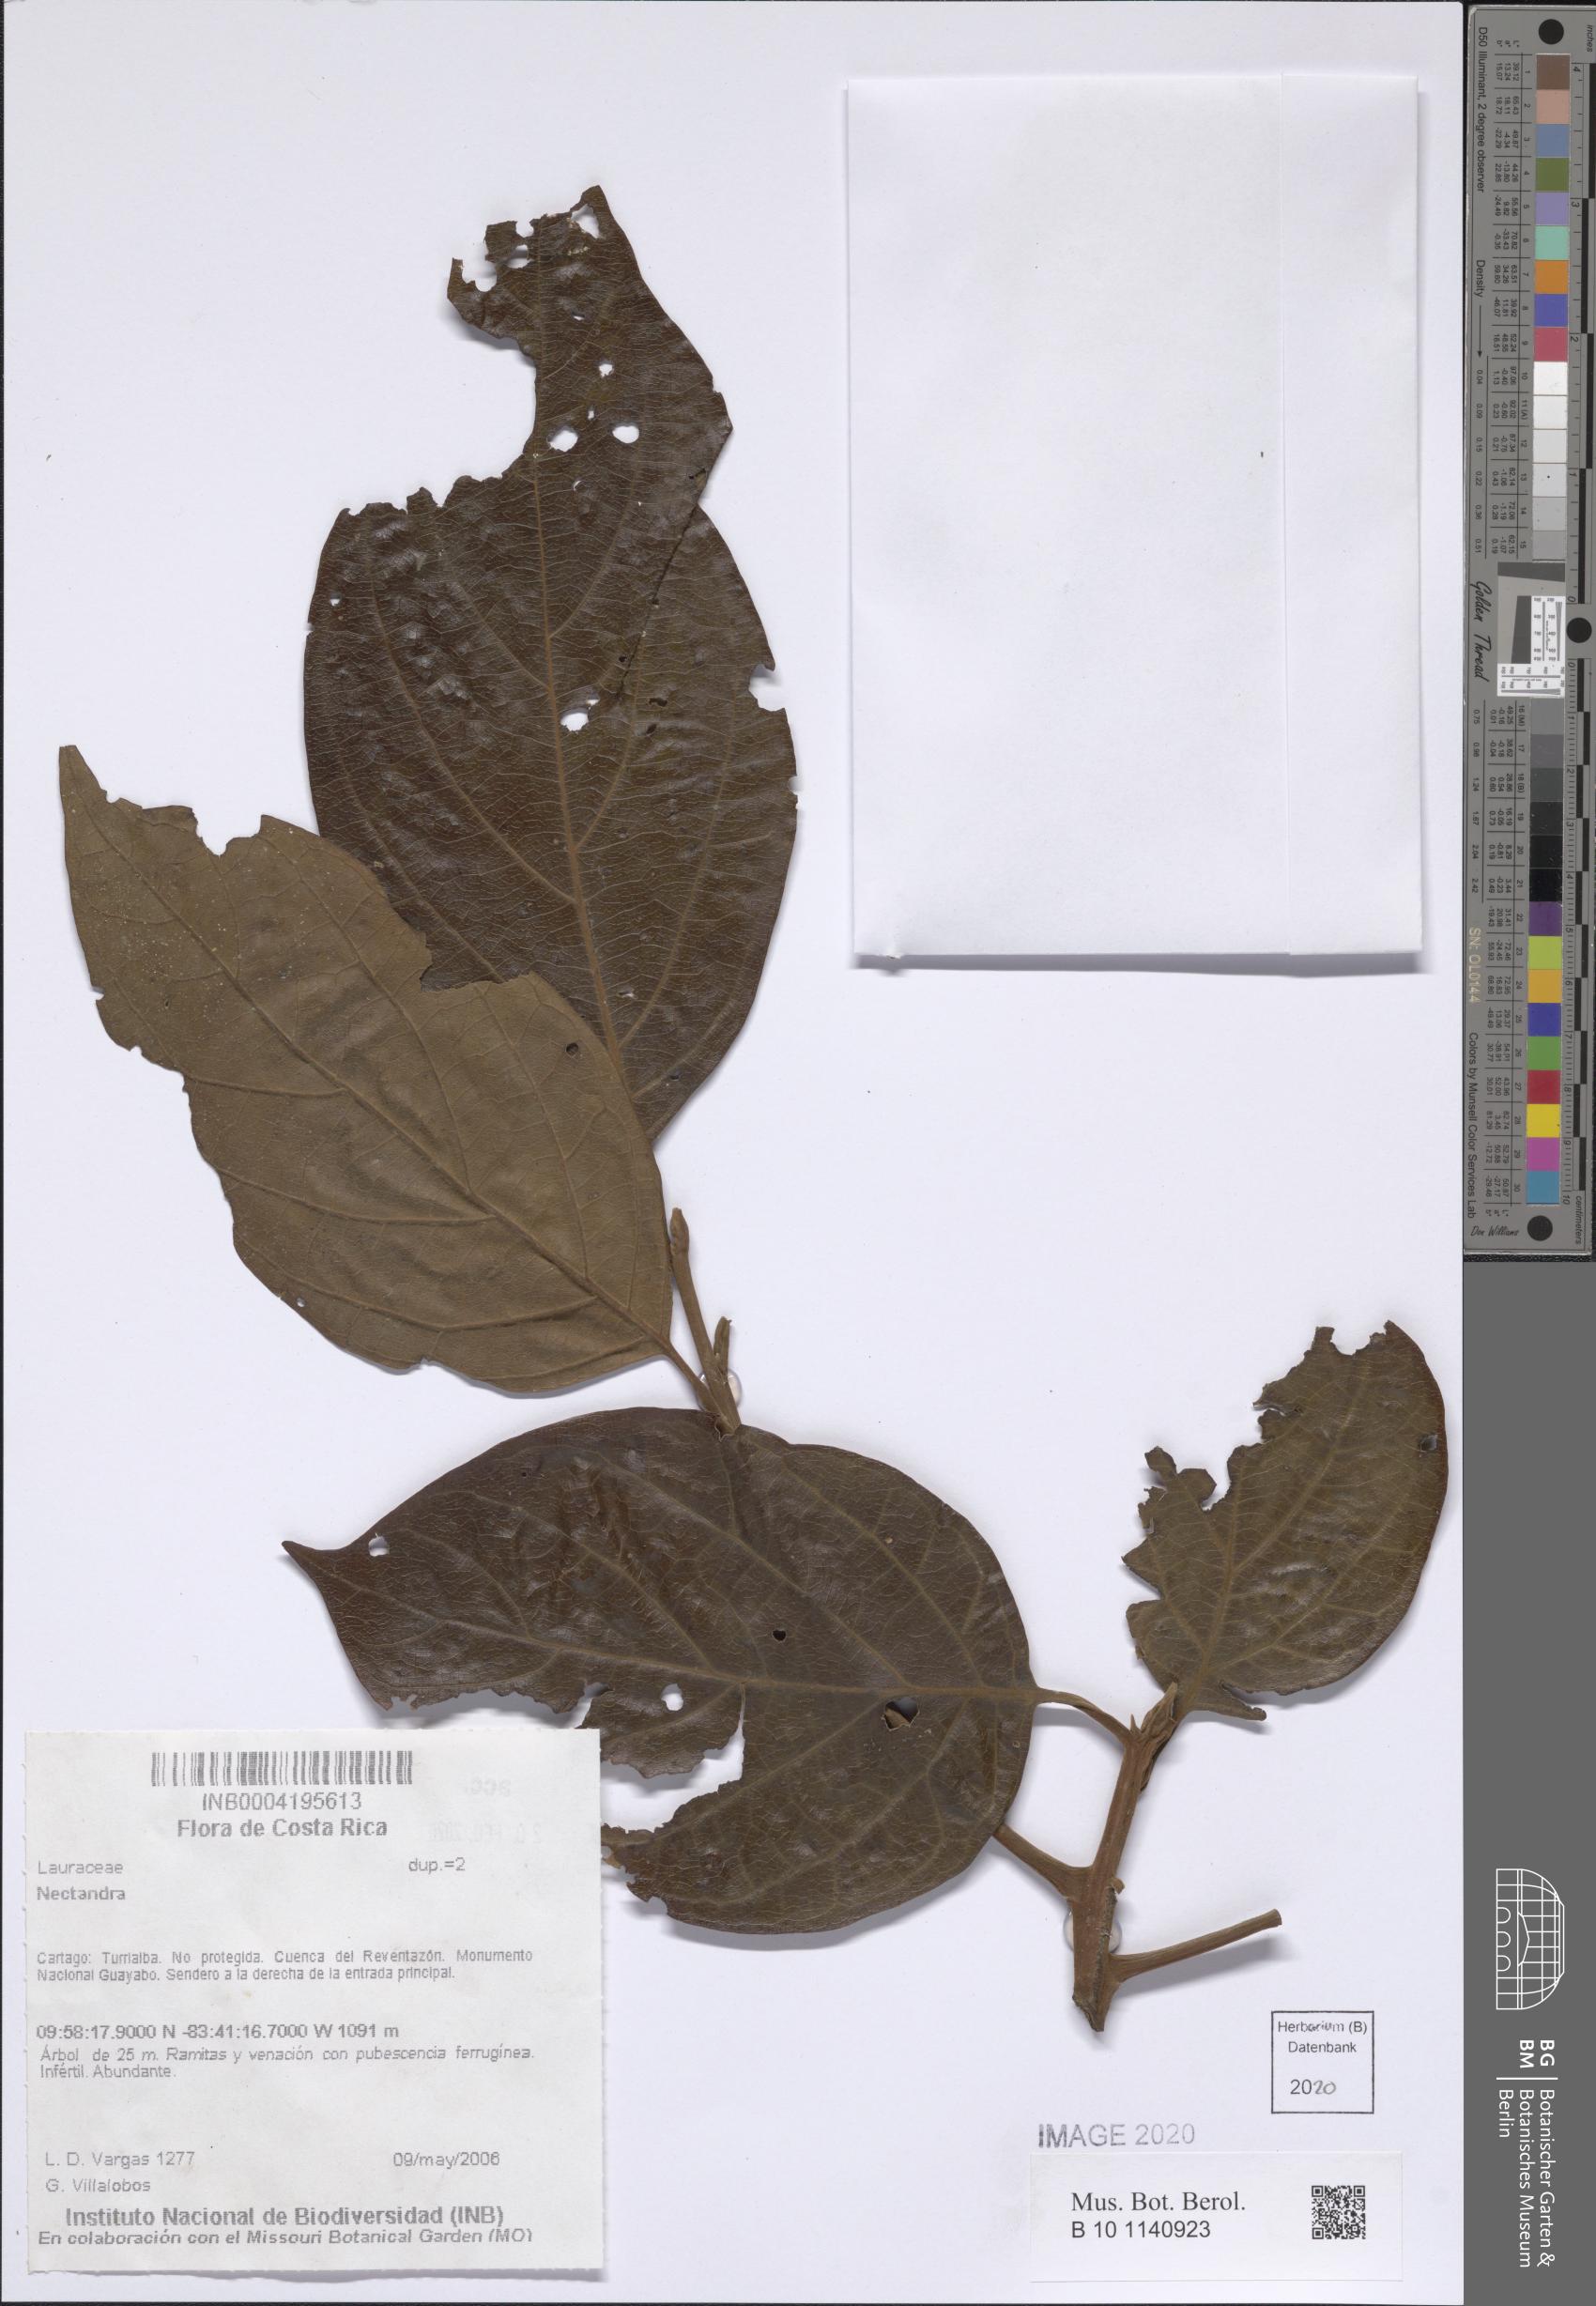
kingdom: Plantae
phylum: Tracheophyta
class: Magnoliopsida
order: Laurales
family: Lauraceae
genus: Nectandra
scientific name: Nectandra
